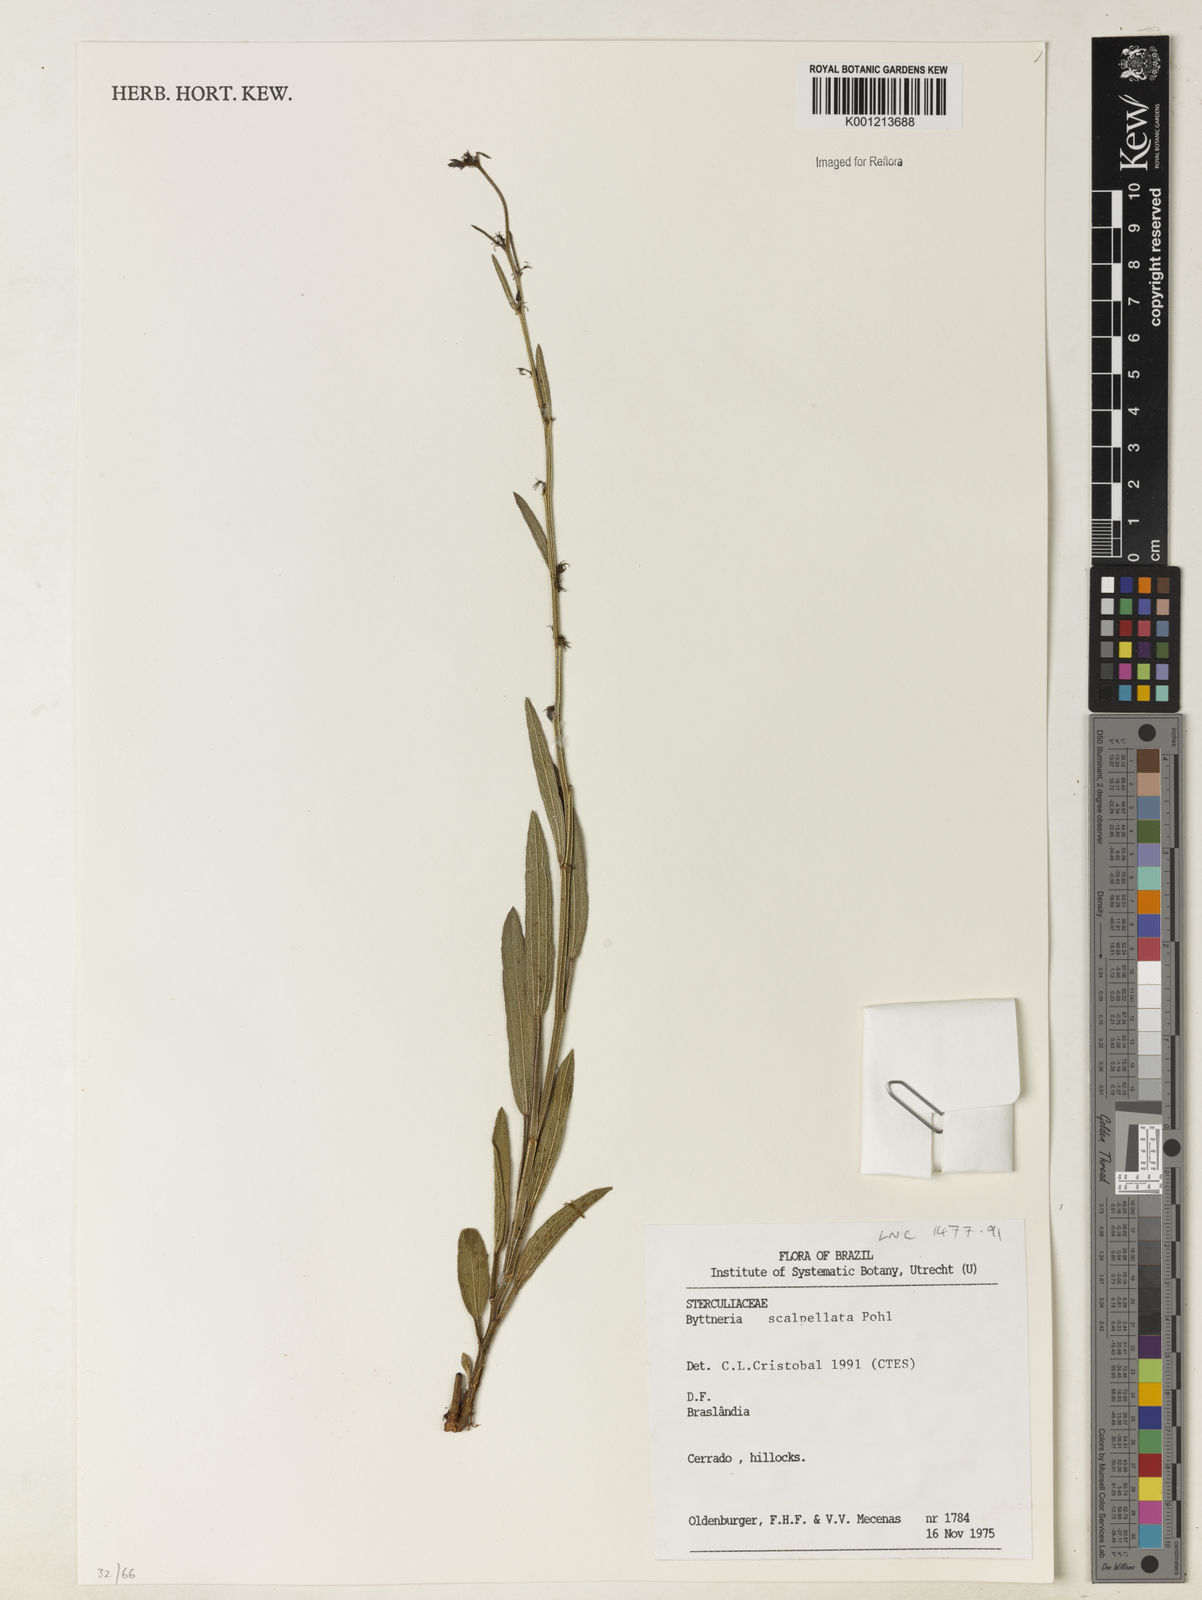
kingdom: Plantae
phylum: Tracheophyta
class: Magnoliopsida
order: Malvales
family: Malvaceae
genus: Byttneria
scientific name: Byttneria scalpellata
